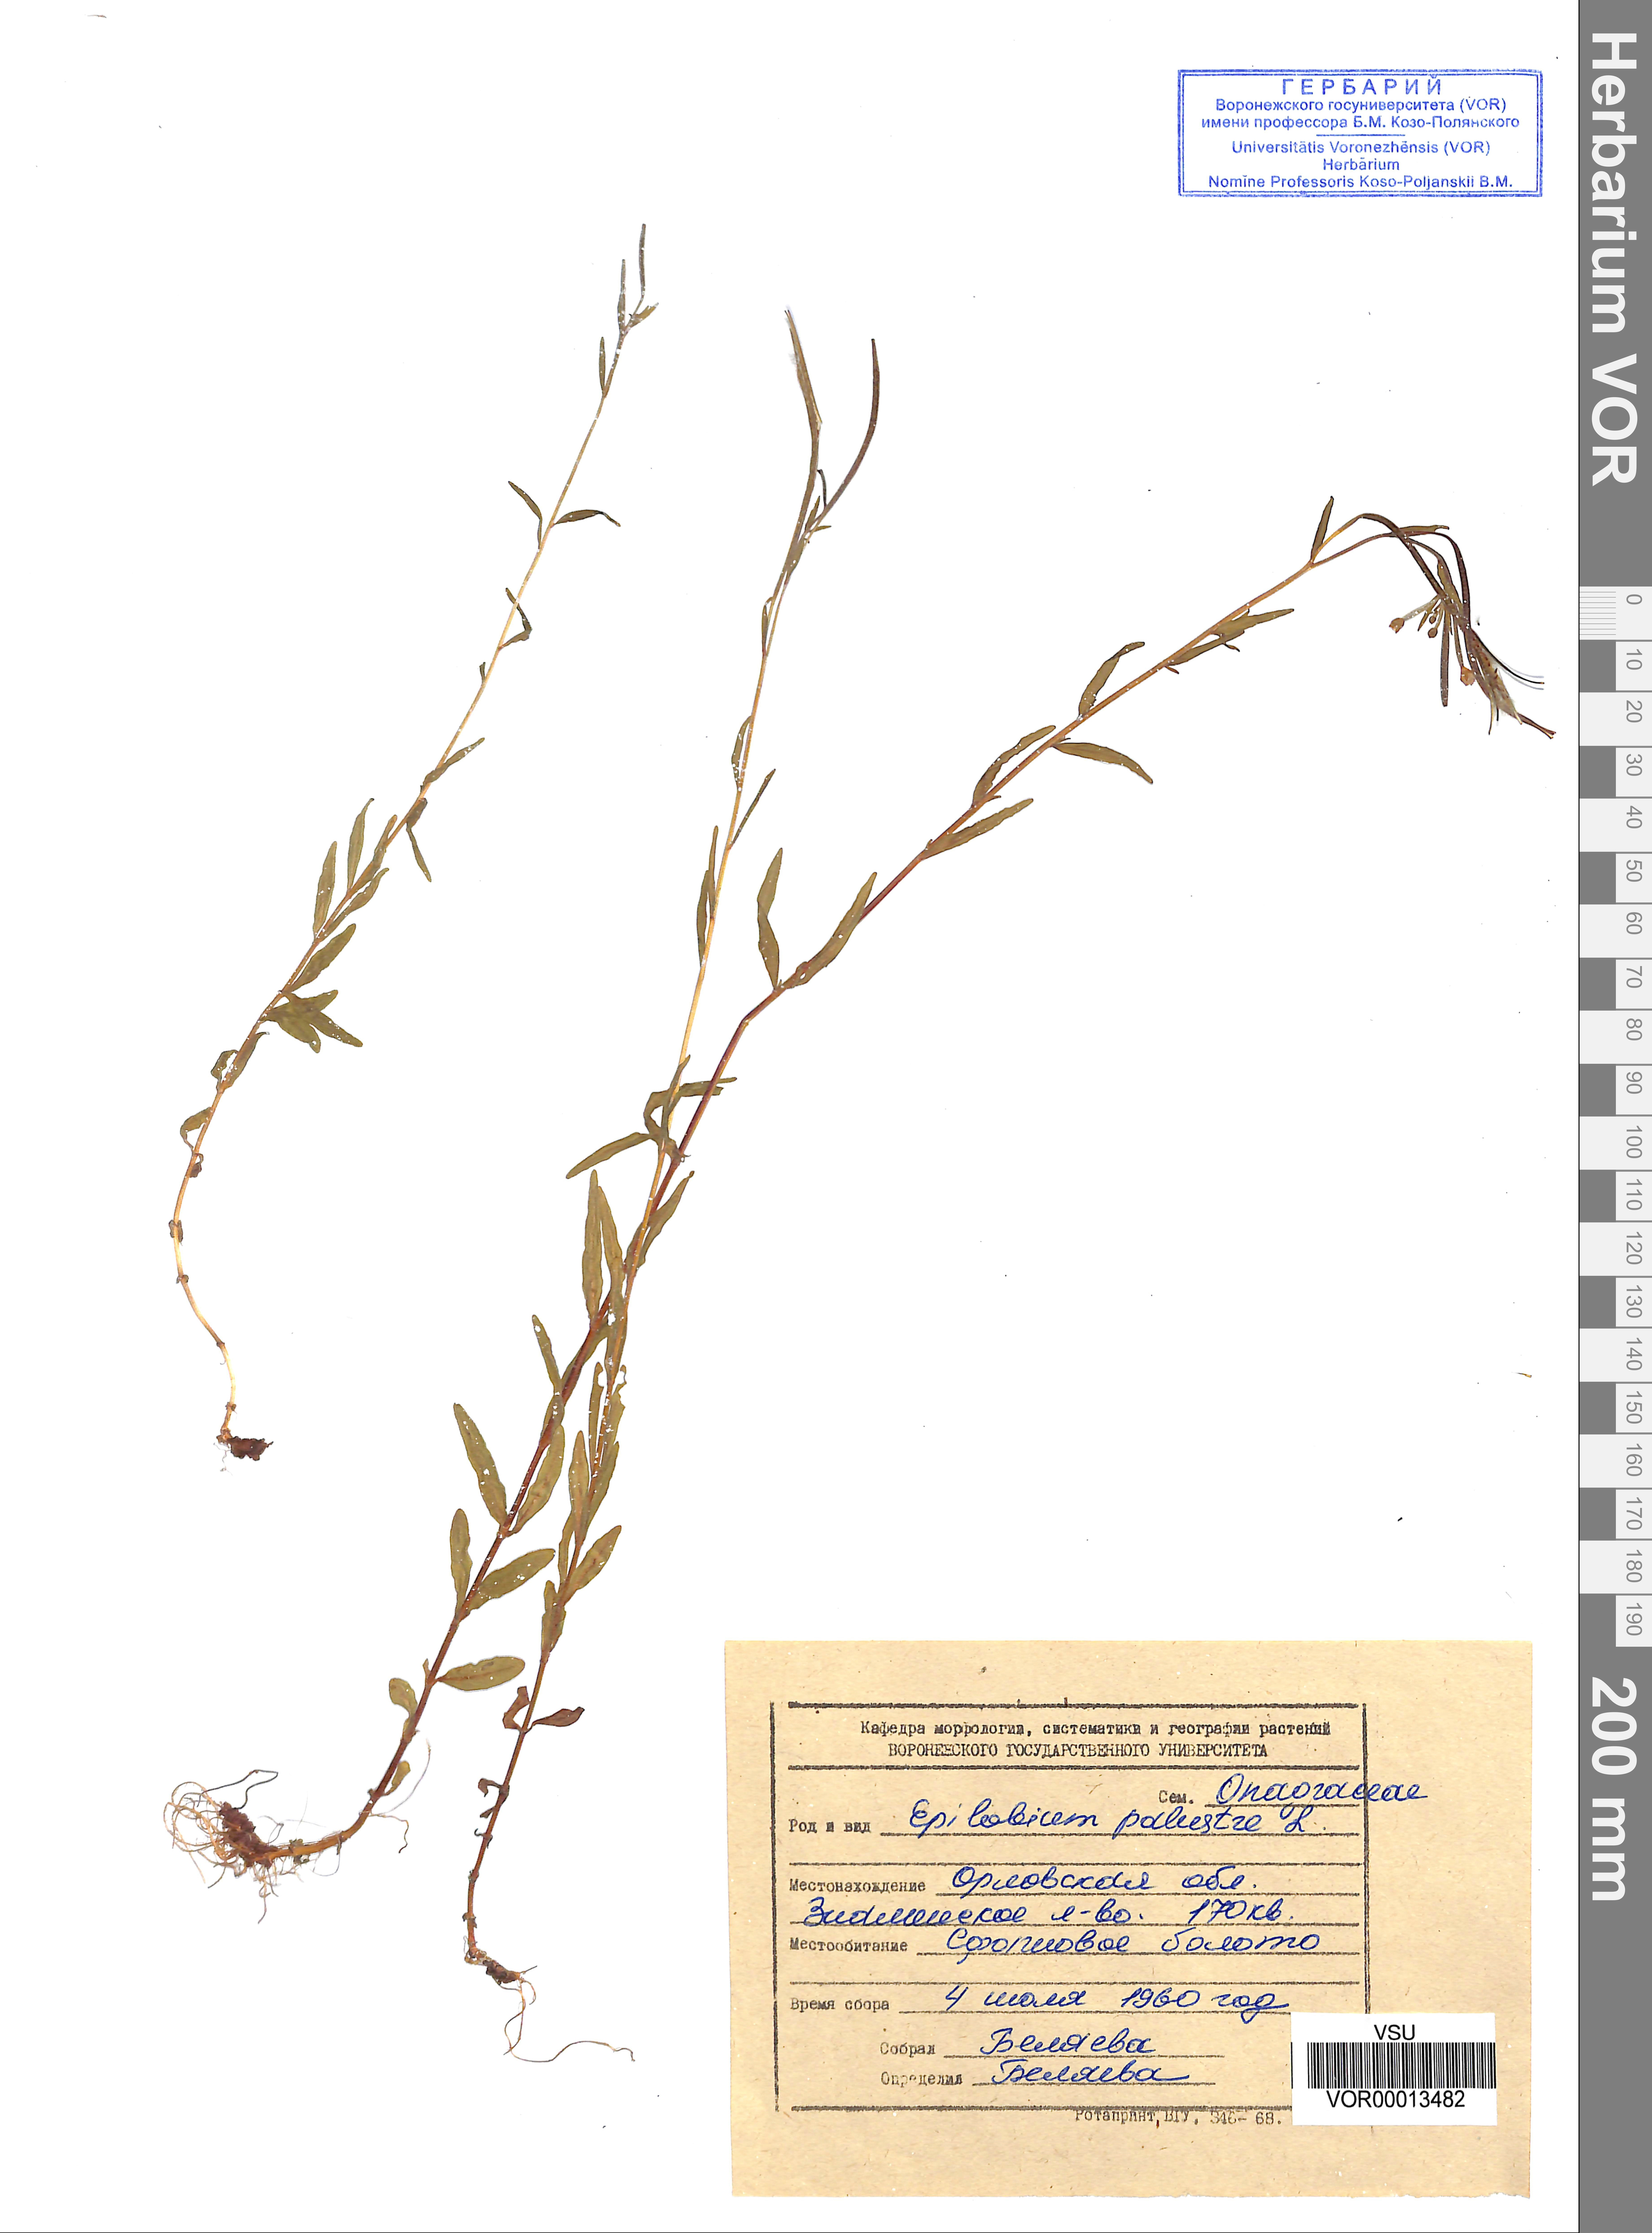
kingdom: Plantae
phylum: Tracheophyta
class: Magnoliopsida
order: Myrtales
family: Onagraceae
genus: Epilobium
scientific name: Epilobium palustre
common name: Marsh willowherb
